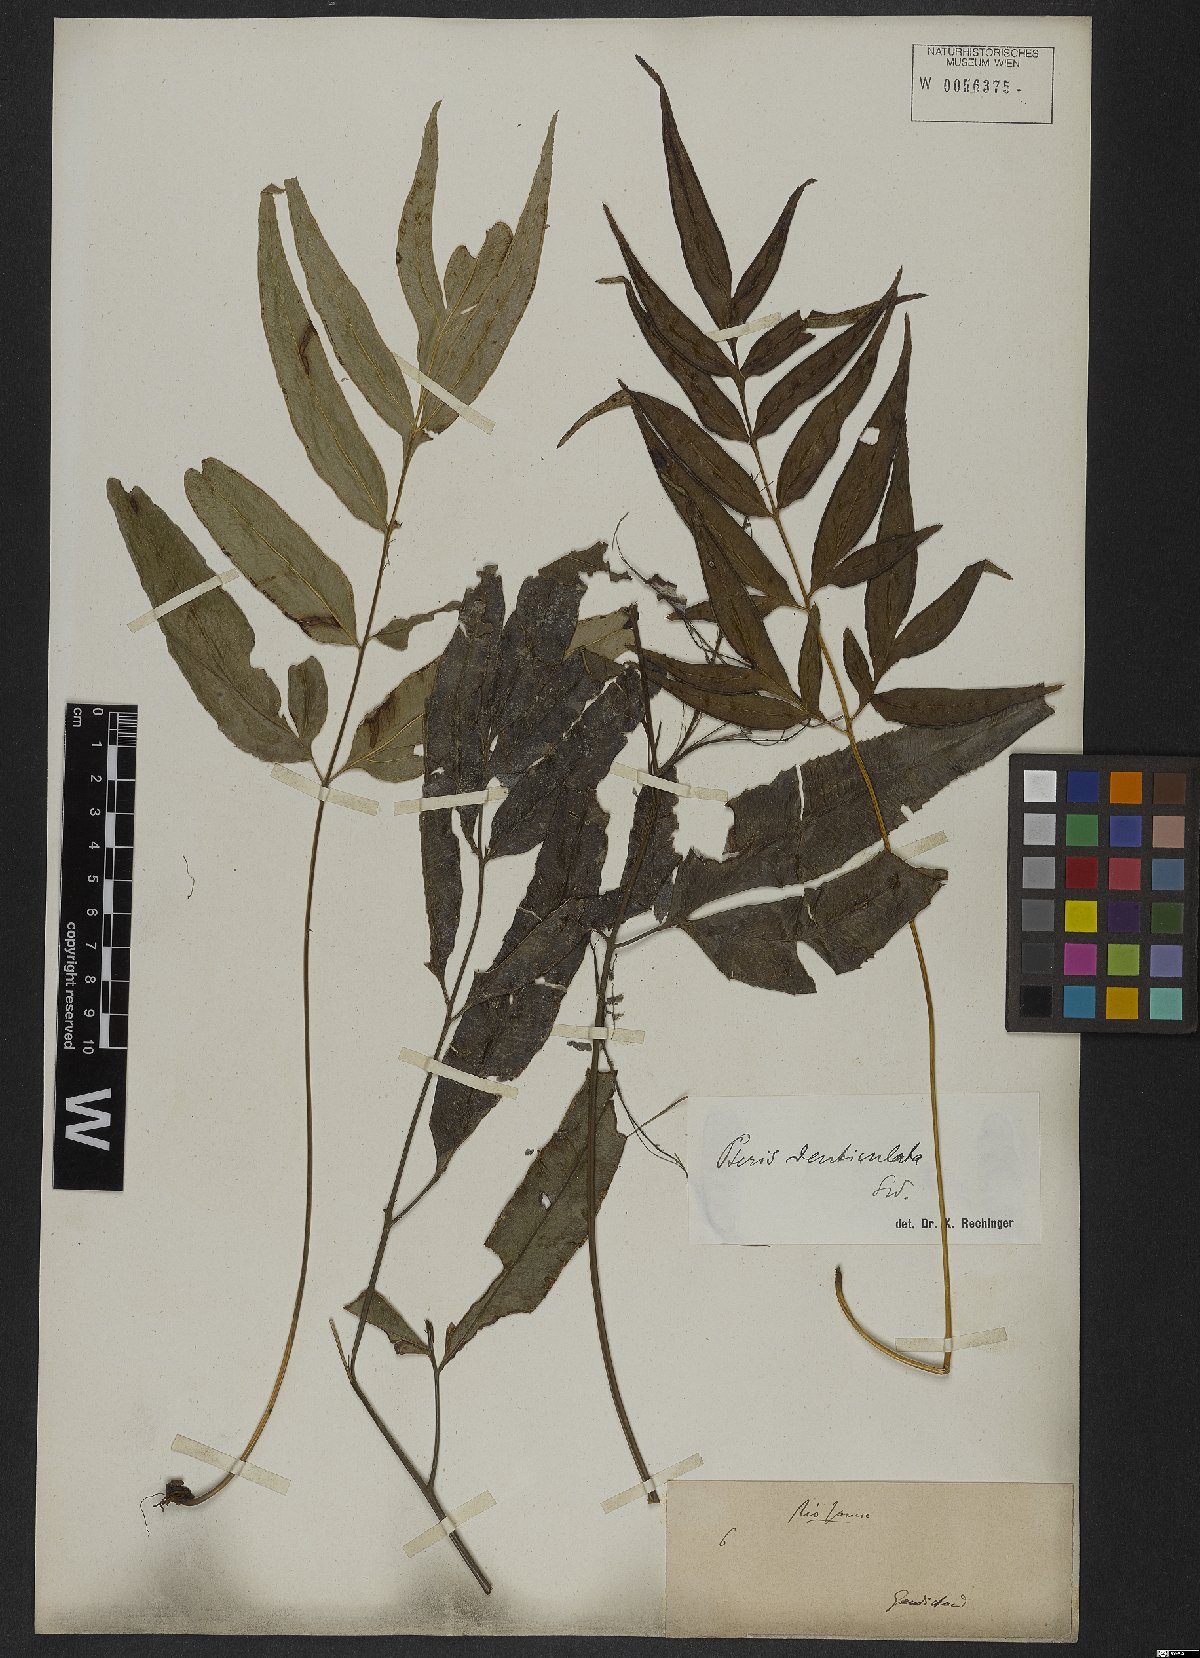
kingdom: Plantae
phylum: Tracheophyta
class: Polypodiopsida
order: Polypodiales
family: Pteridaceae
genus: Pteris
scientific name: Pteris denticulata
